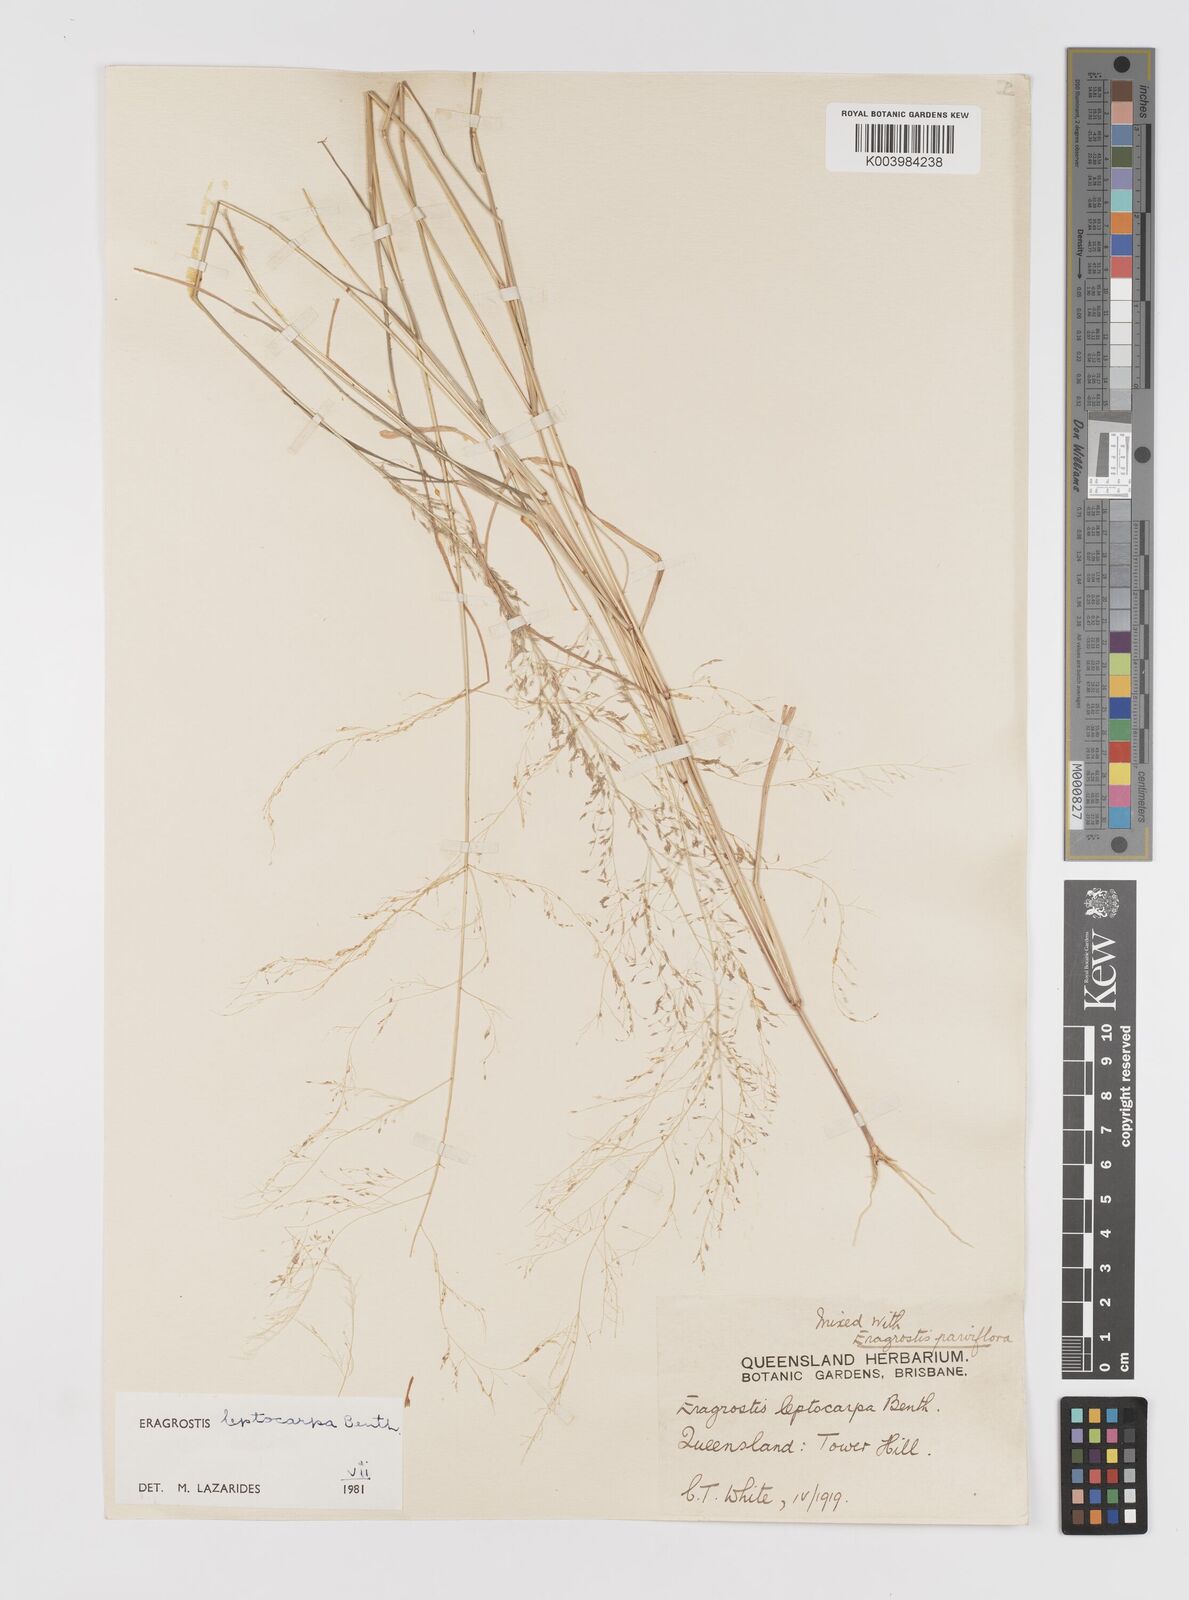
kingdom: Plantae
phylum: Tracheophyta
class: Liliopsida
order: Poales
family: Poaceae
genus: Eragrostis
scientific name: Eragrostis leptocarpa
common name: Drooping love grass
